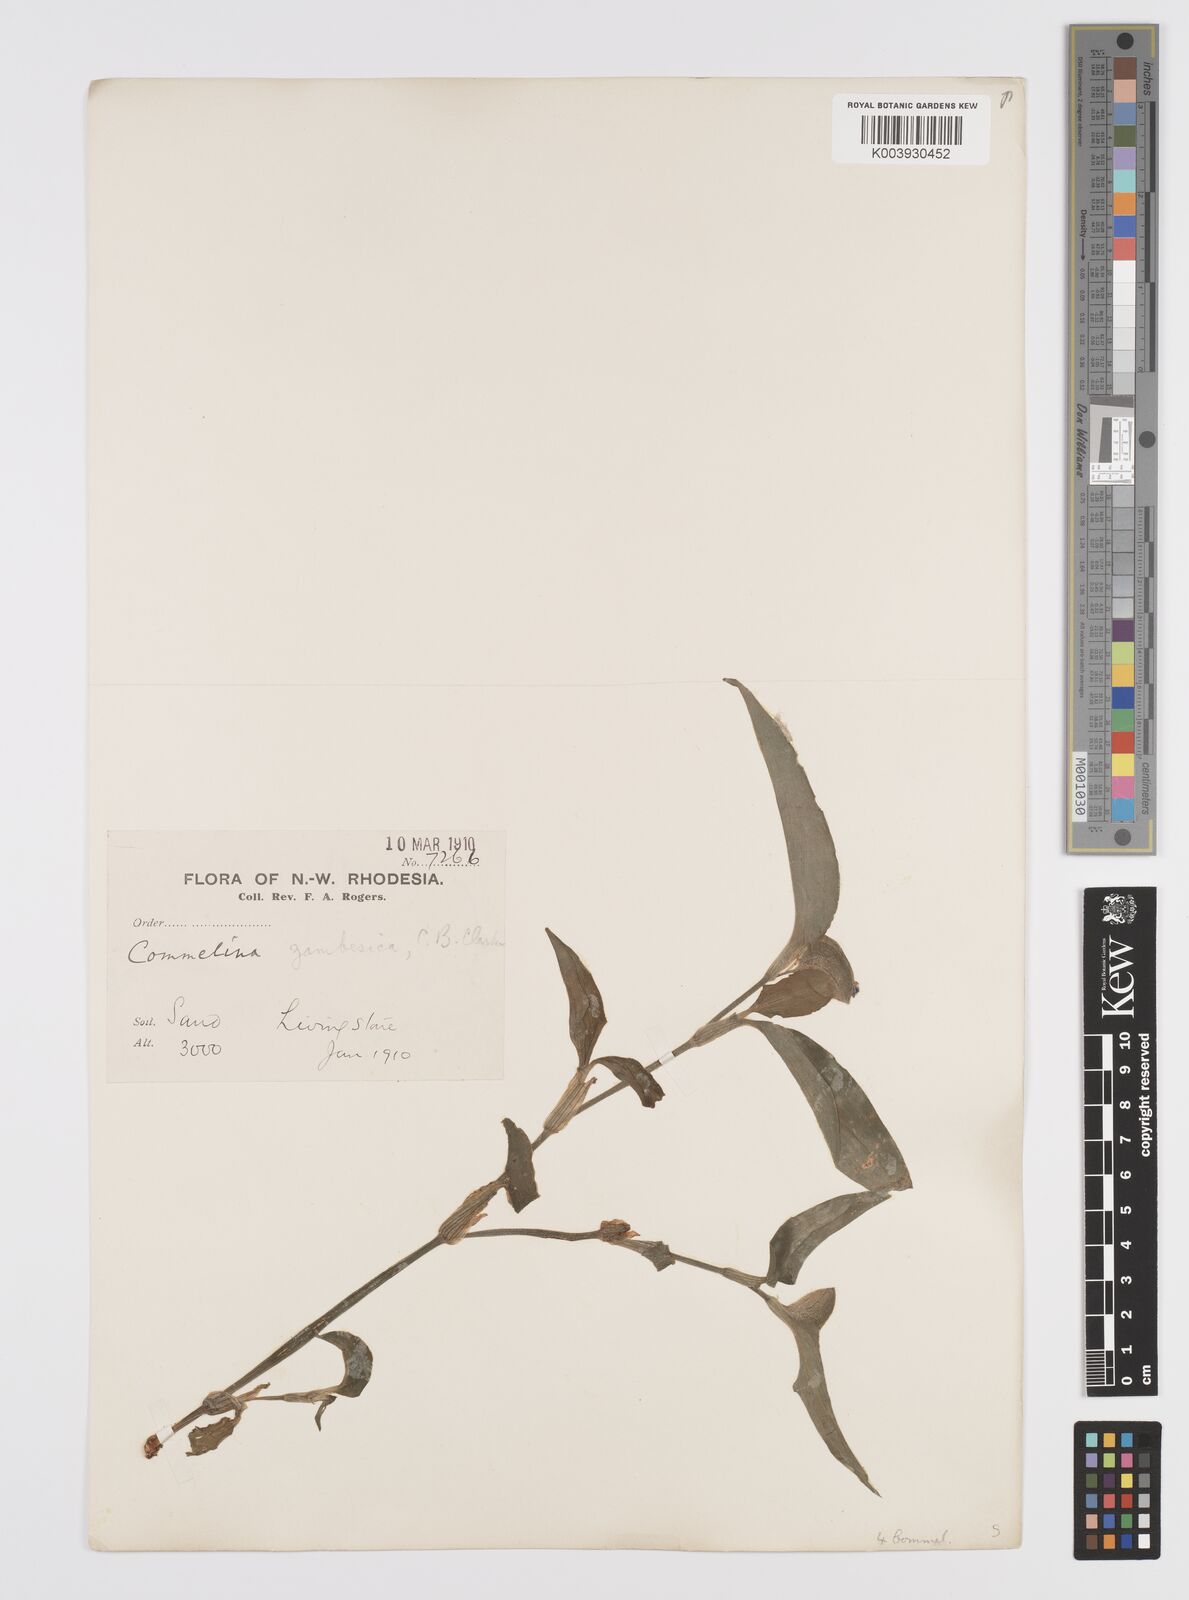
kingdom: Plantae
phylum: Tracheophyta
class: Liliopsida
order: Commelinales
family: Commelinaceae
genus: Commelina
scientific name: Commelina zambesica
